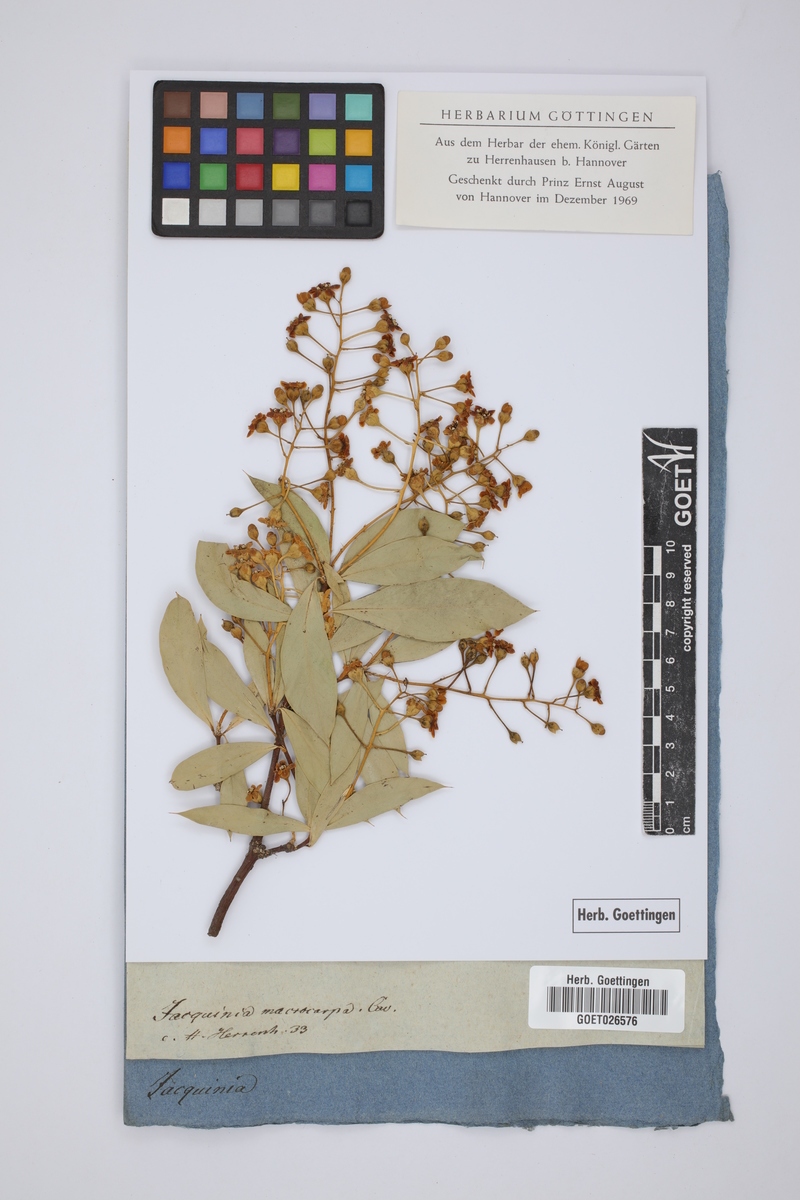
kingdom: Plantae
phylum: Tracheophyta
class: Magnoliopsida
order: Ericales
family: Primulaceae
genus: Bonellia
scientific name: Bonellia macrocarpa
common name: Primrose
